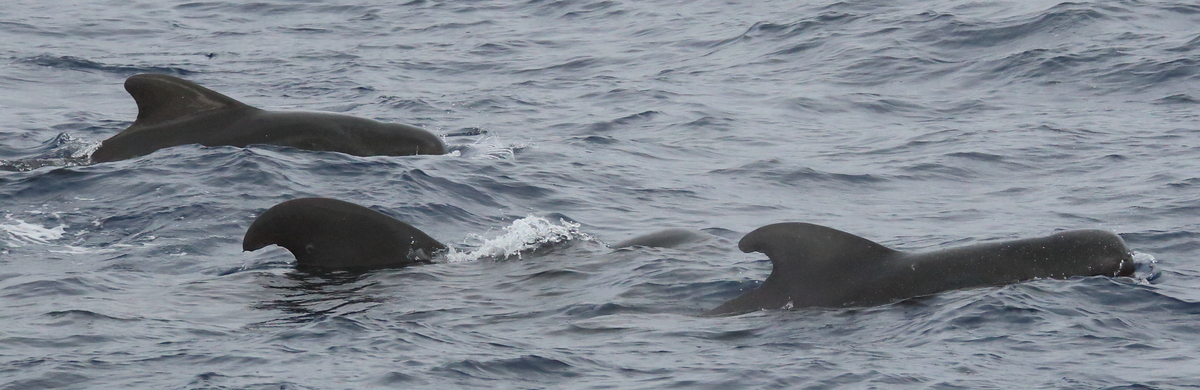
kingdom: Animalia
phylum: Chordata
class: Mammalia
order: Cetacea
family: Delphinidae
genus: Globicephala
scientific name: Globicephala macrorhynchus
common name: Short-finned Pilot Whale
